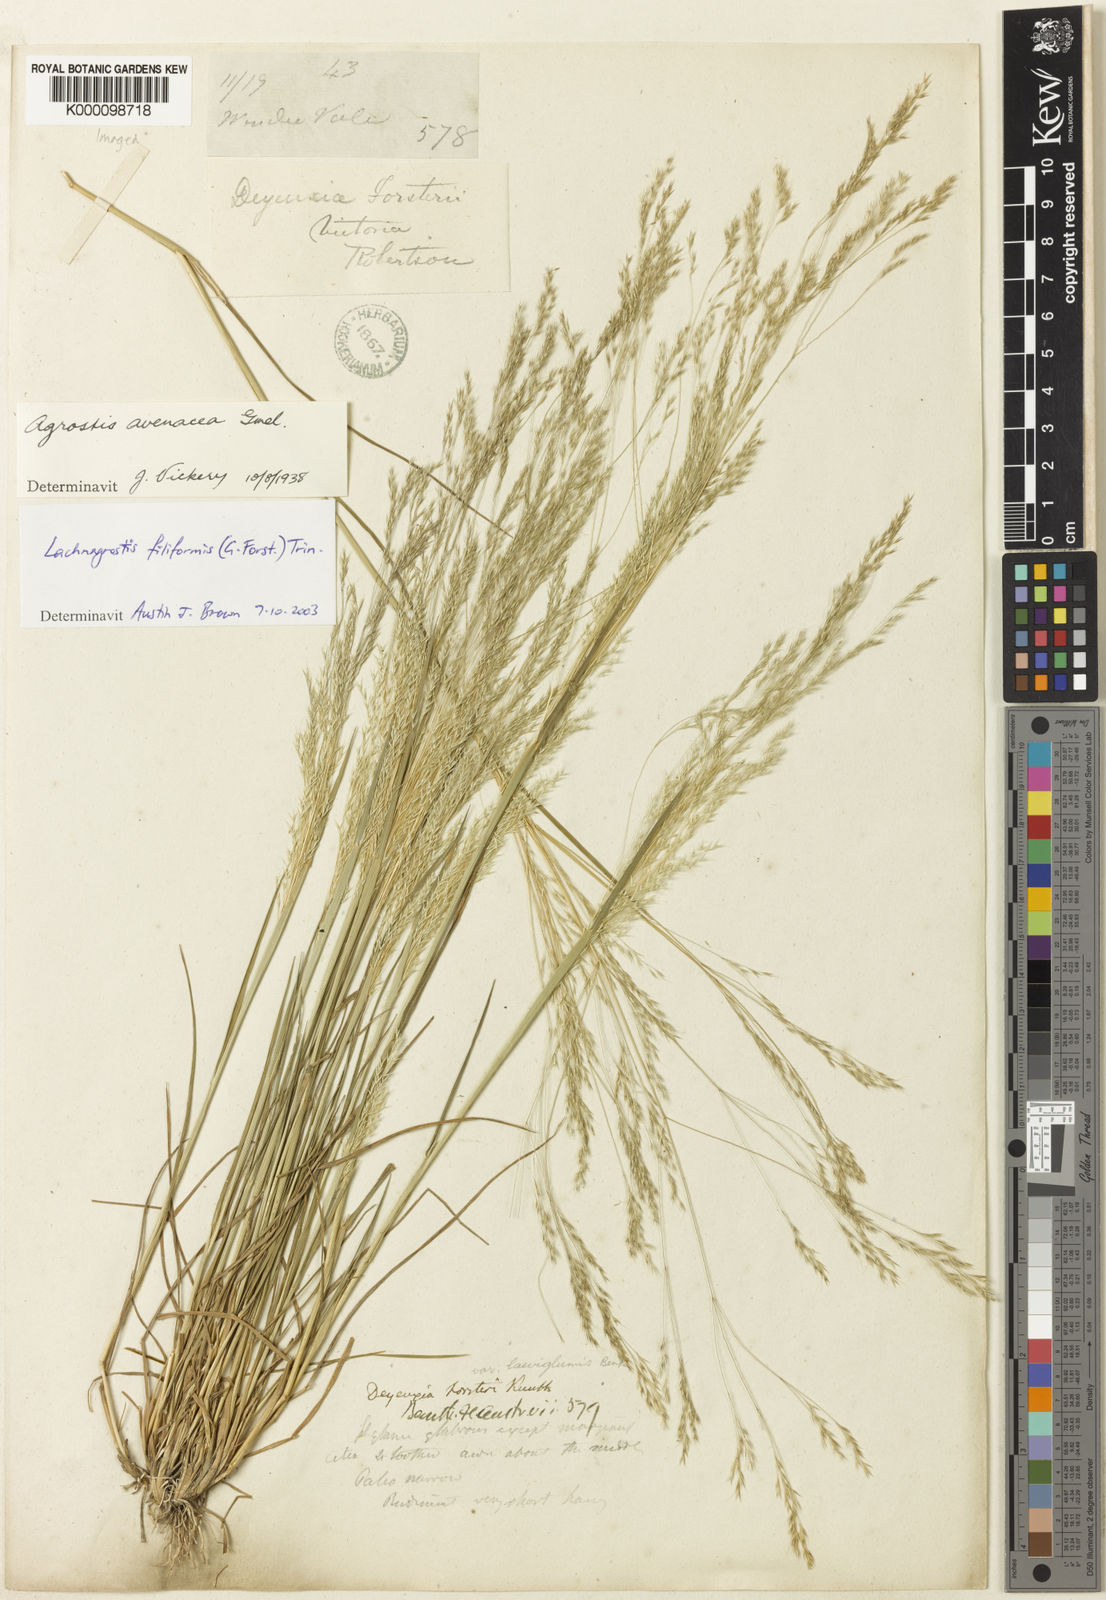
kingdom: Plantae
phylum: Tracheophyta
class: Liliopsida
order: Poales
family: Poaceae
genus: Lachnagrostis
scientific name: Lachnagrostis filiformis
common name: Bentgrass
